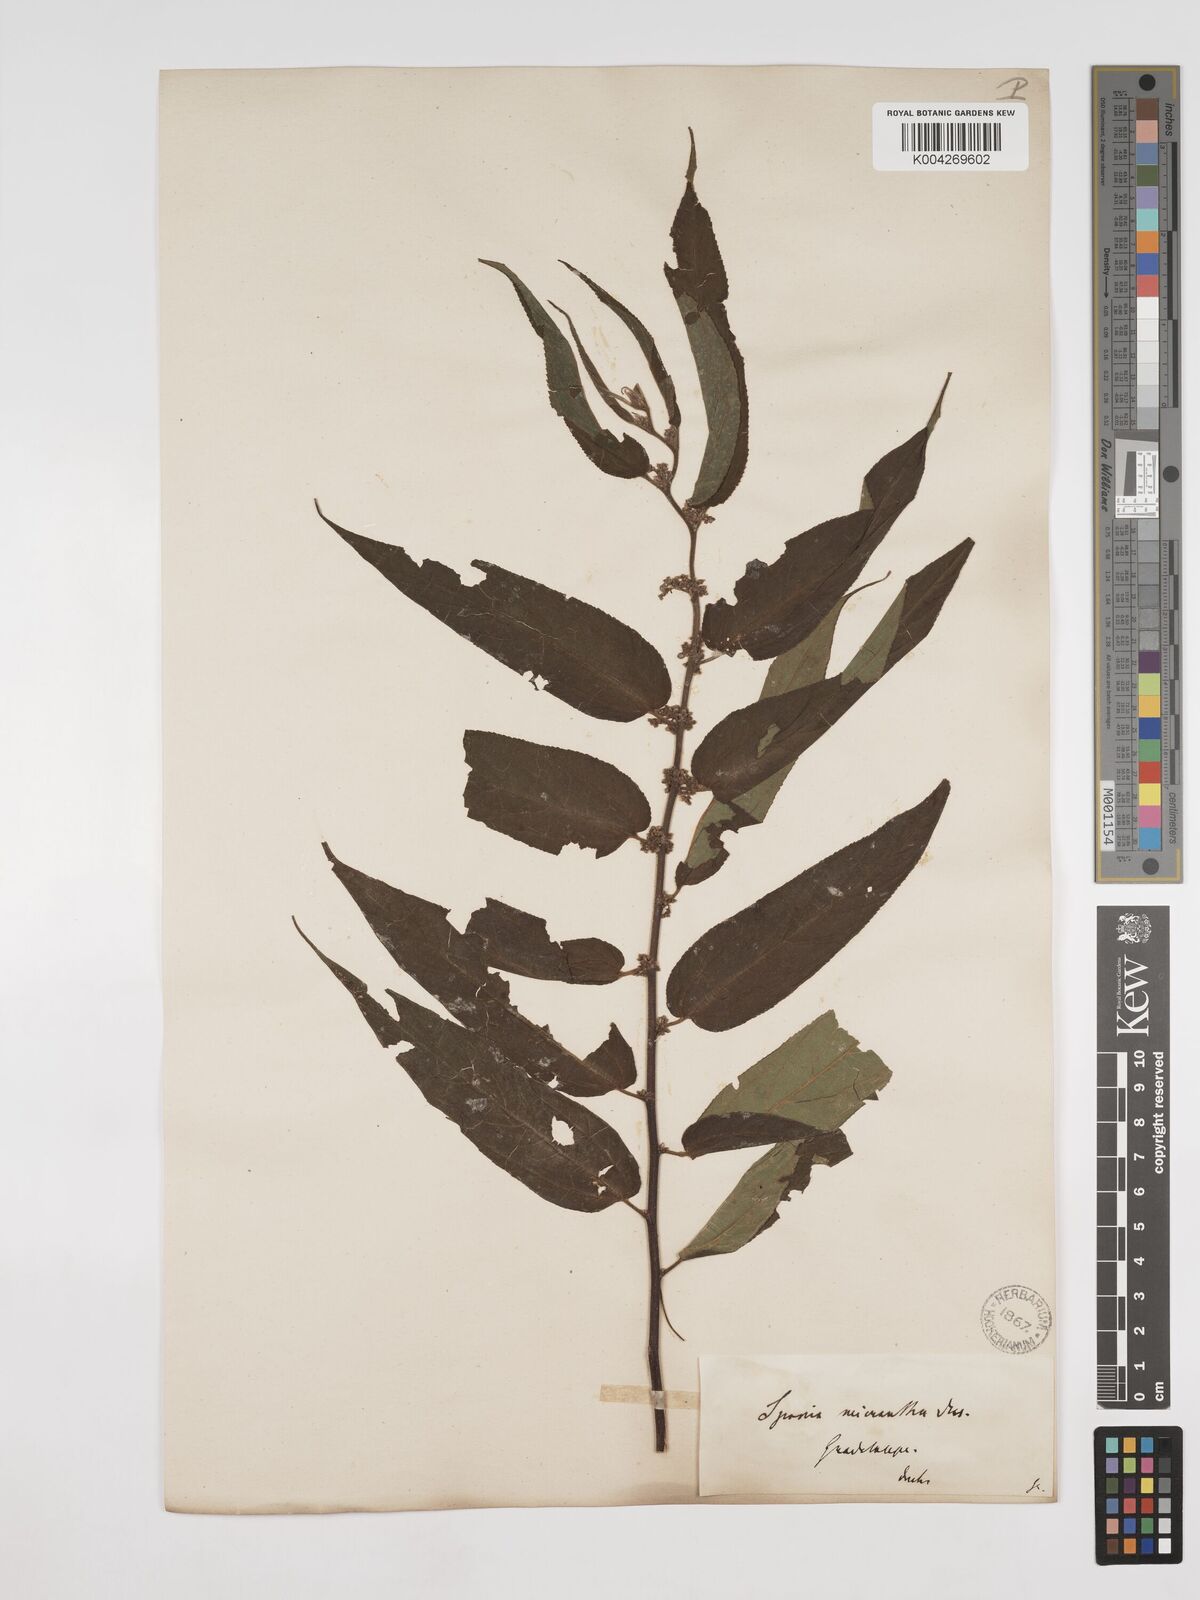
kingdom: Plantae
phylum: Tracheophyta
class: Magnoliopsida
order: Rosales
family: Cannabaceae
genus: Trema
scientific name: Trema micranthum
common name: Jamaican nettletree
